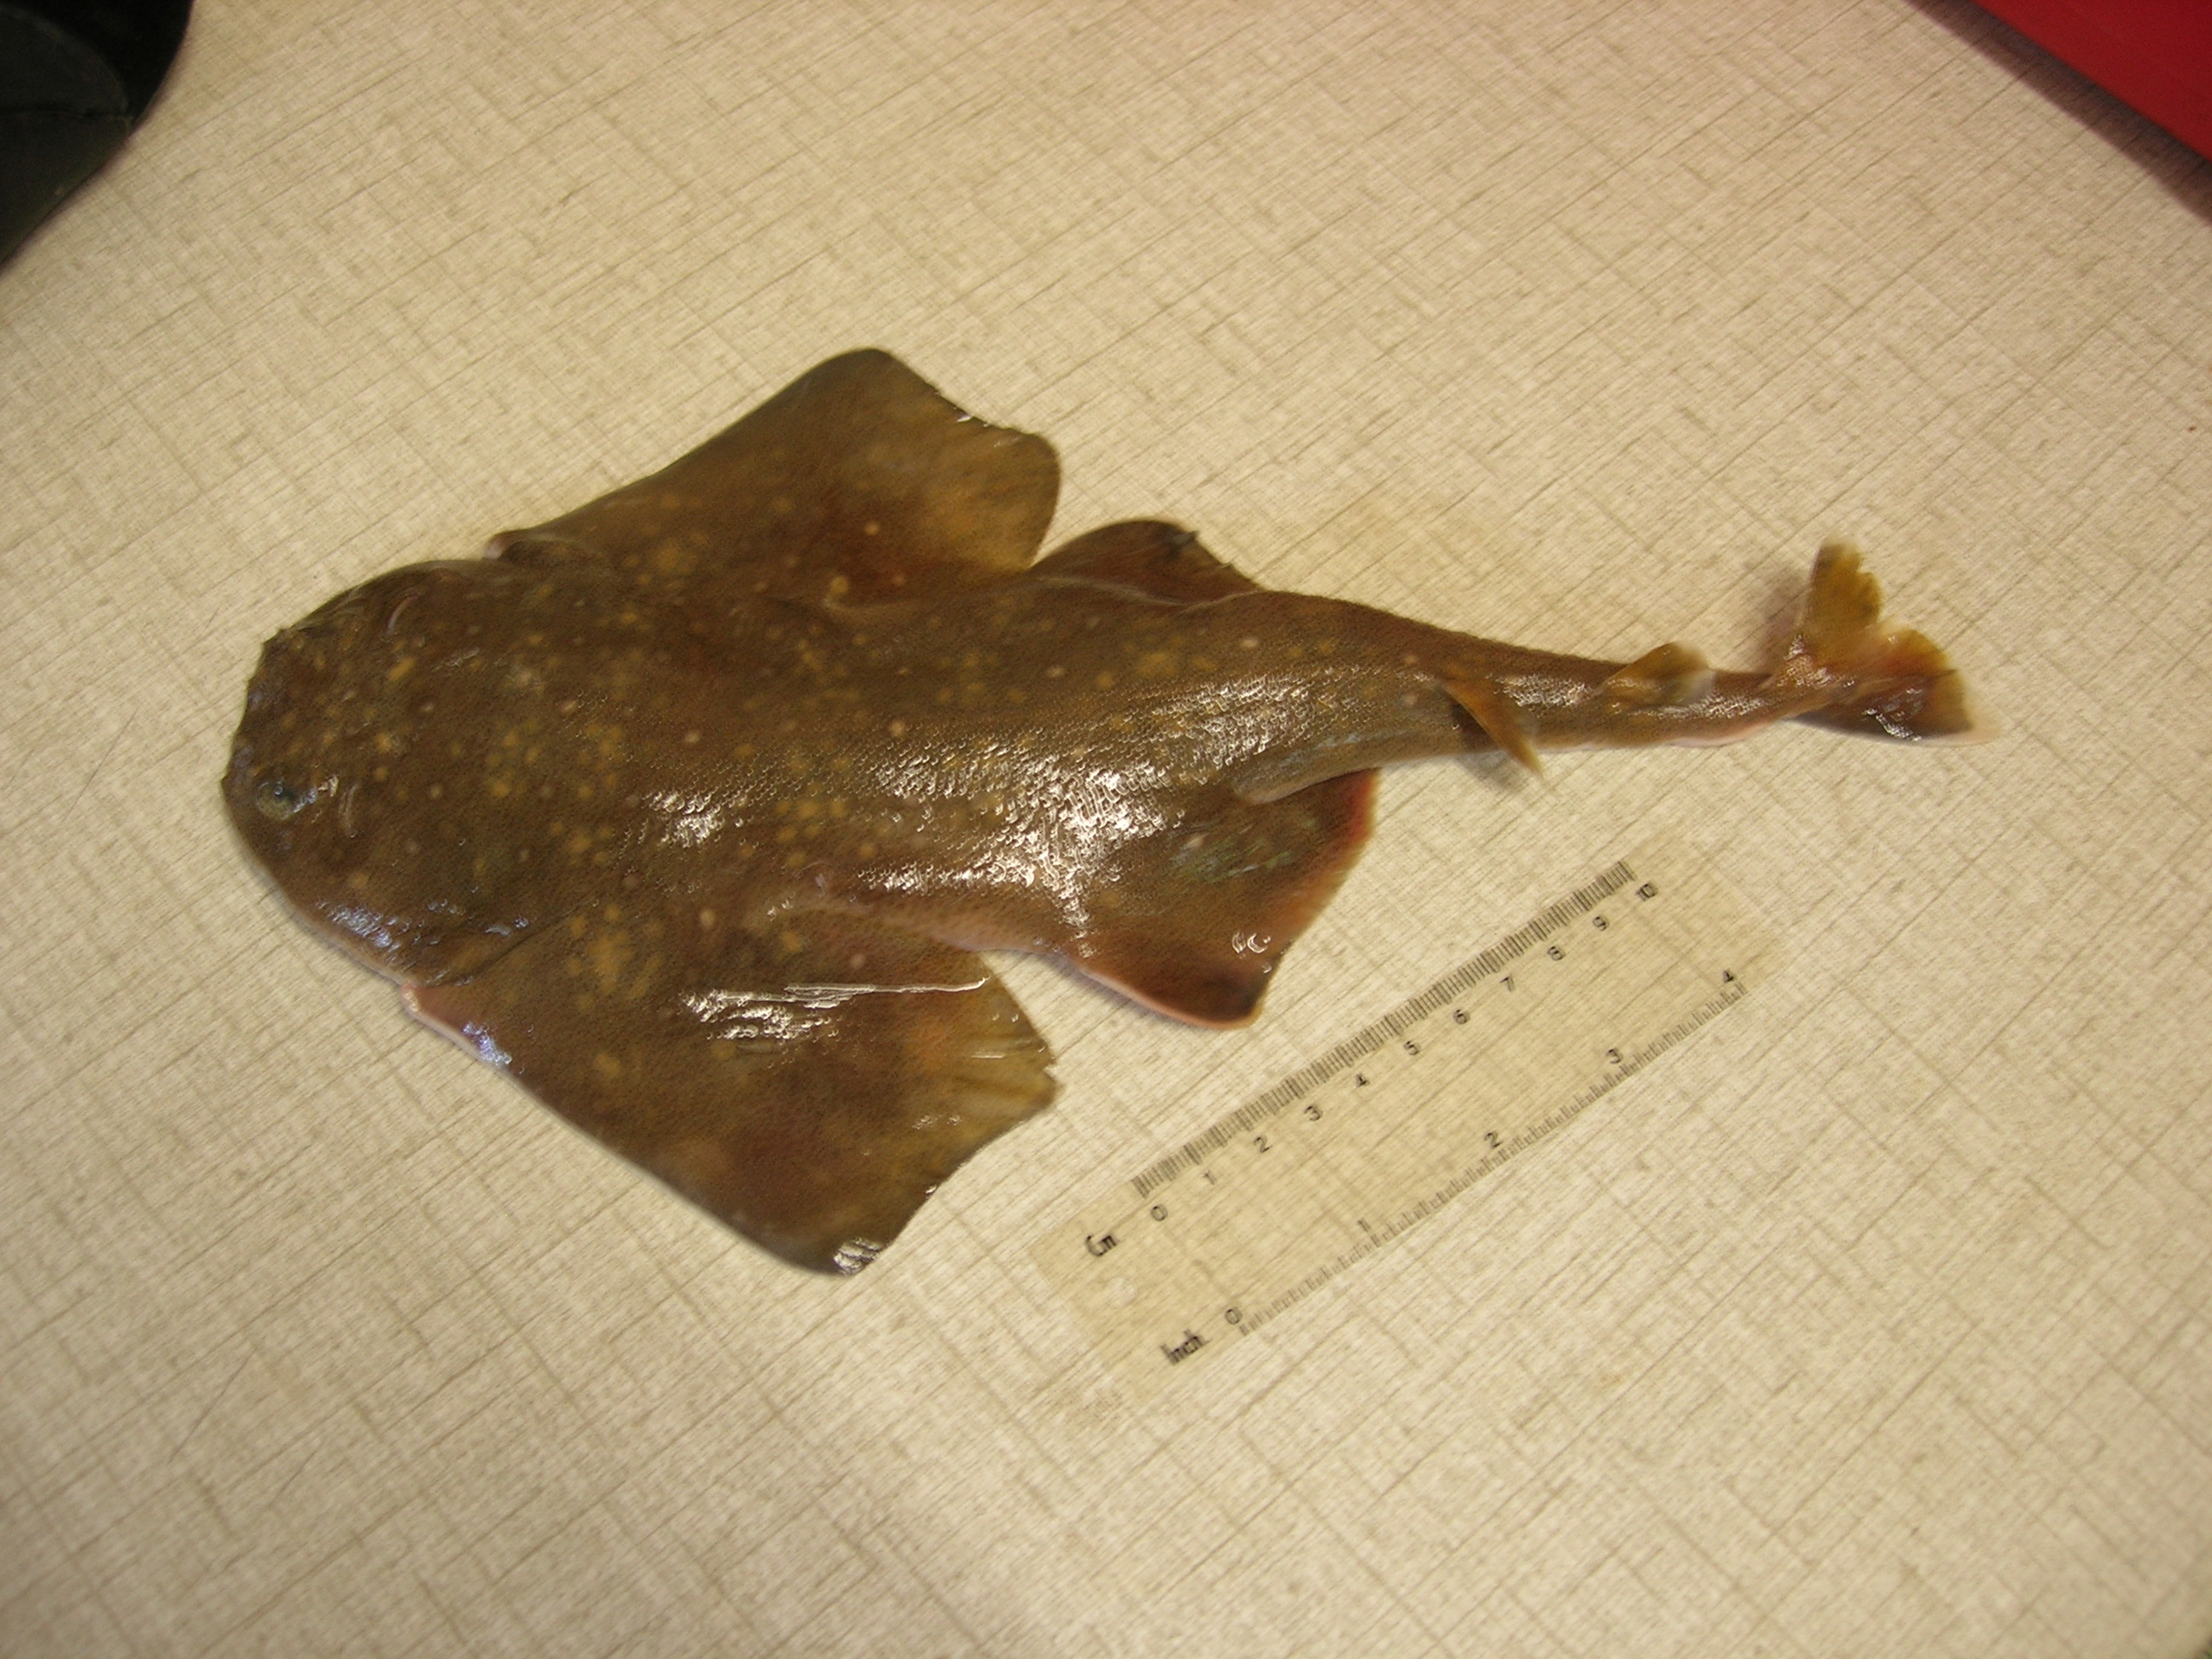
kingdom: Animalia
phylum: Chordata
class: Elasmobranchii
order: Squatiniformes
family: Squatinidae
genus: Squatina
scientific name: Squatina africana
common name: African angelshark
